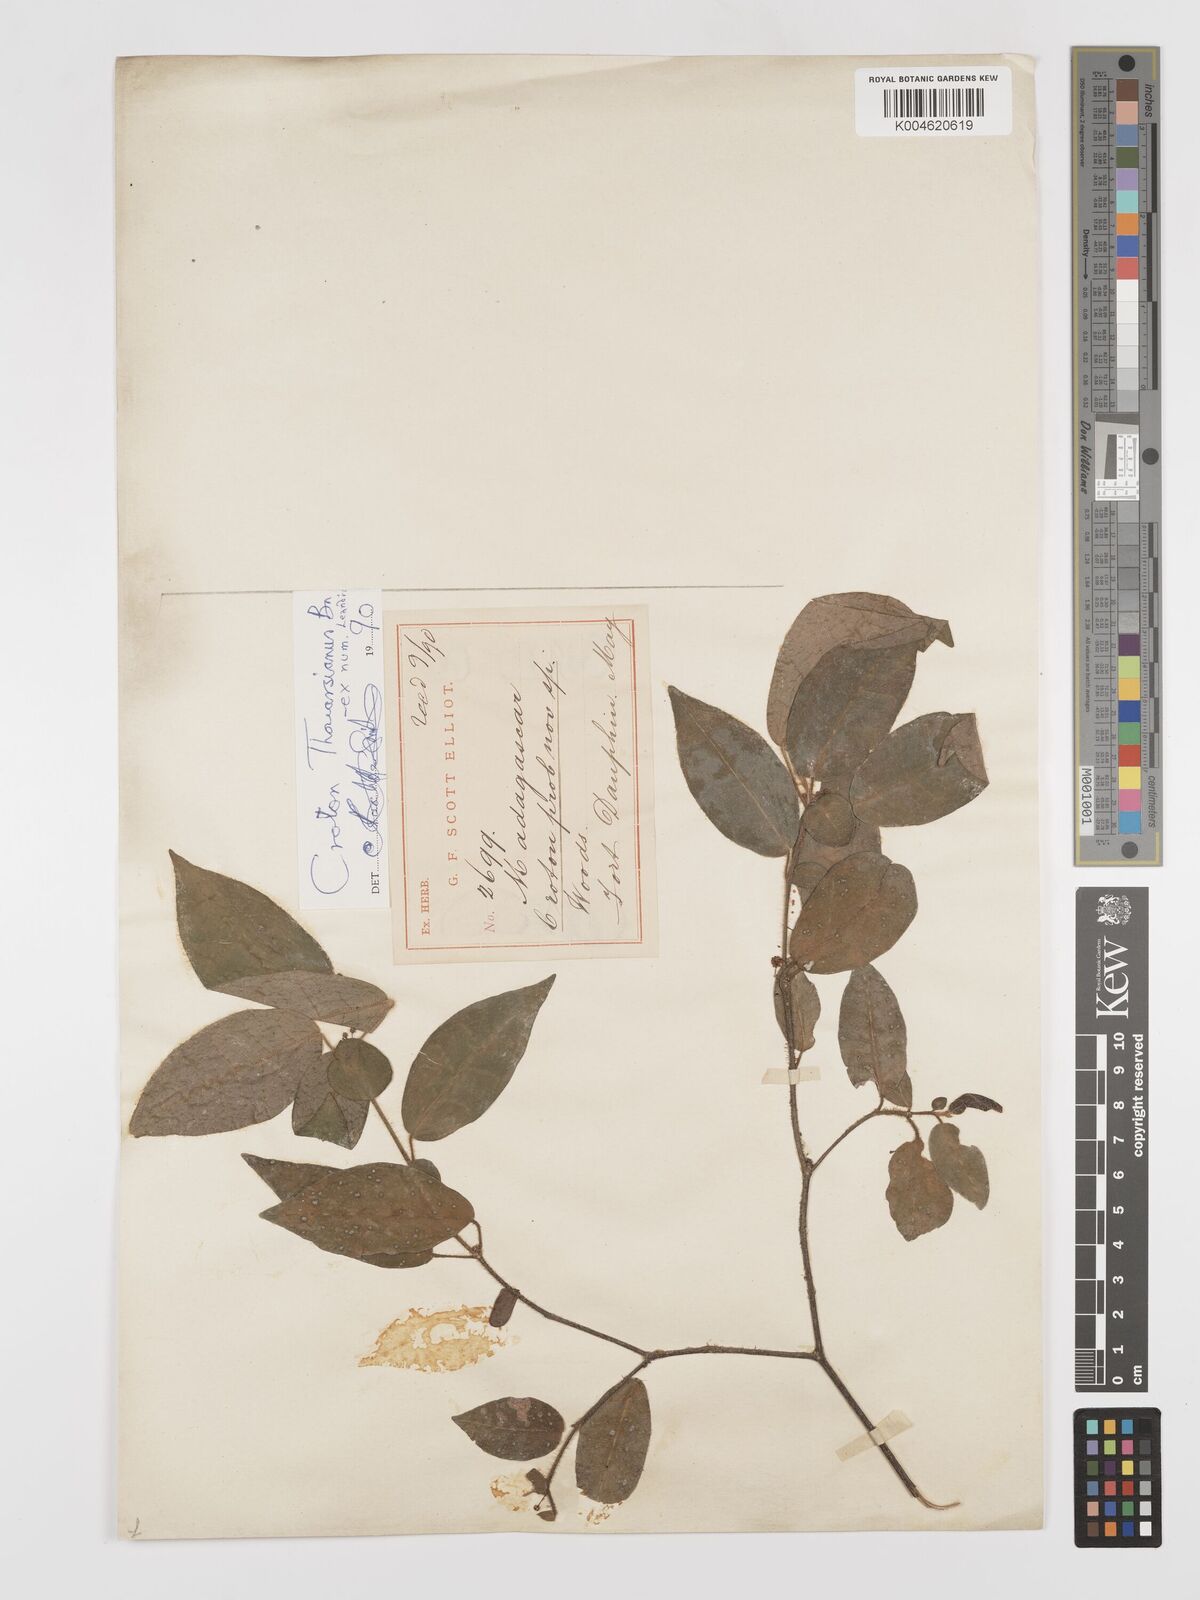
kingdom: Plantae
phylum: Tracheophyta
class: Magnoliopsida
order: Malpighiales
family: Euphorbiaceae
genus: Croton
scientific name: Croton thouarsianus
